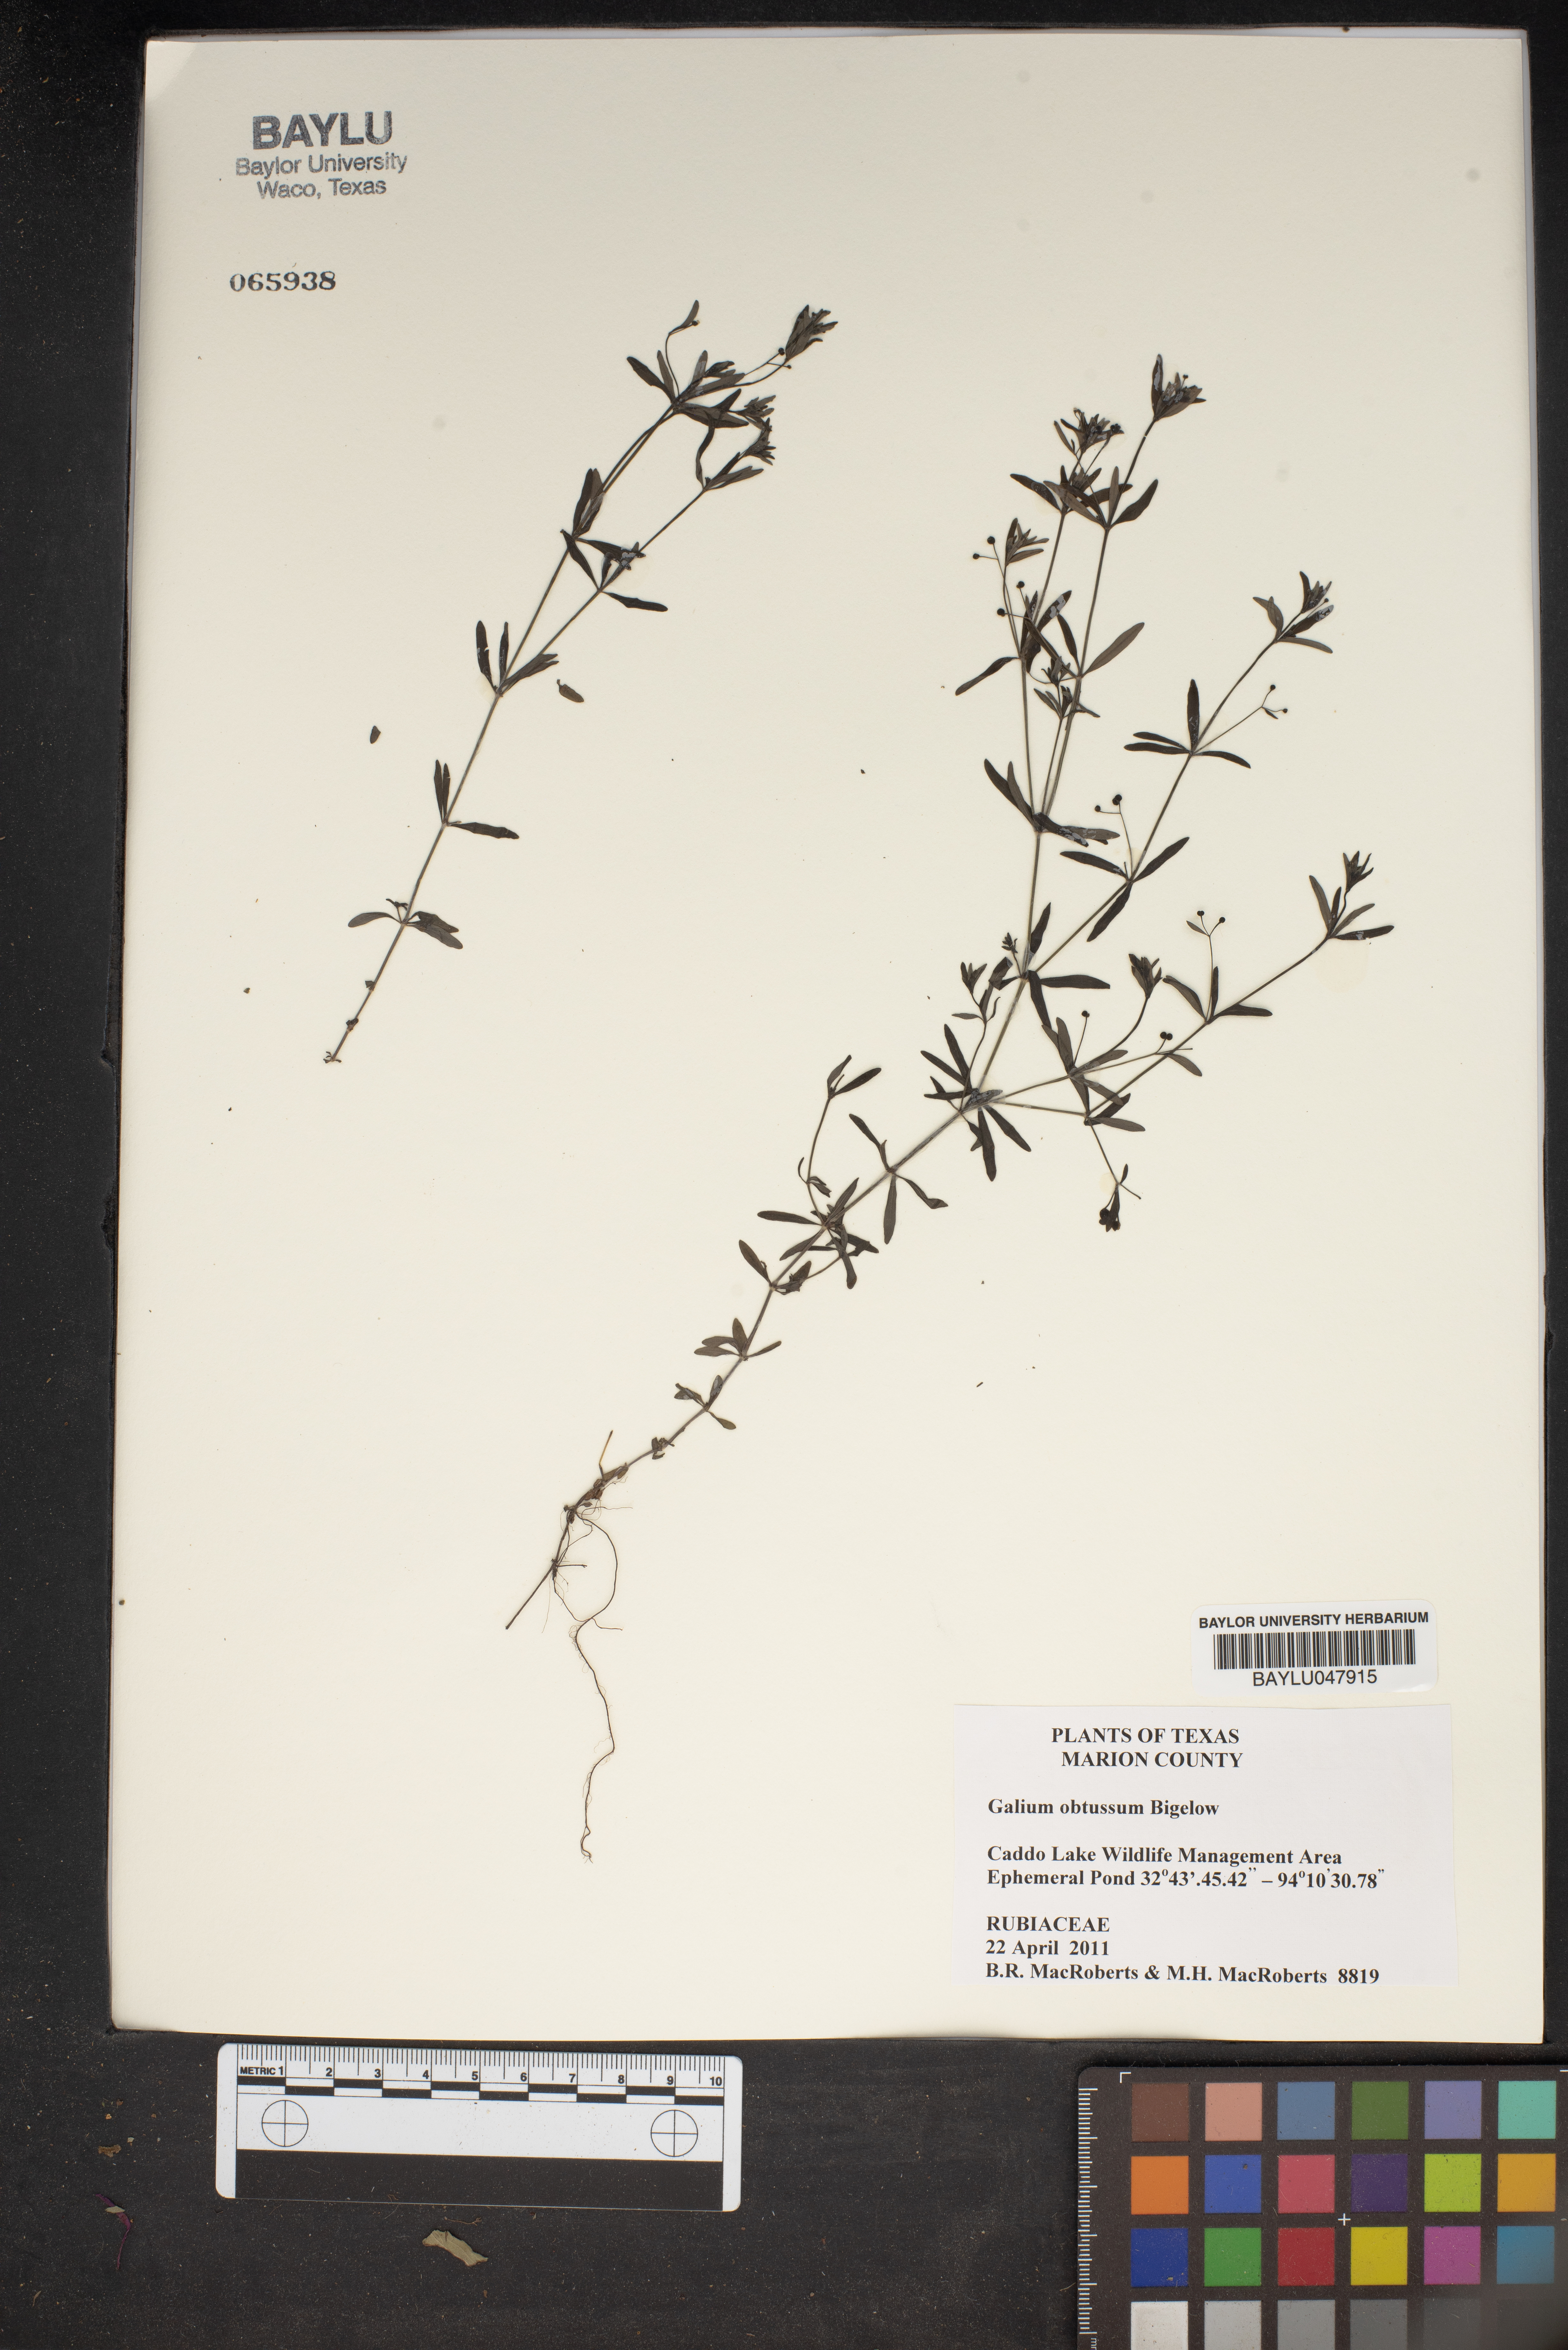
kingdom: Plantae
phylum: Tracheophyta
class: Magnoliopsida
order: Gentianales
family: Rubiaceae
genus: Galium
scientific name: Galium obtusum
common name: Blunt-leaved bedstraw
